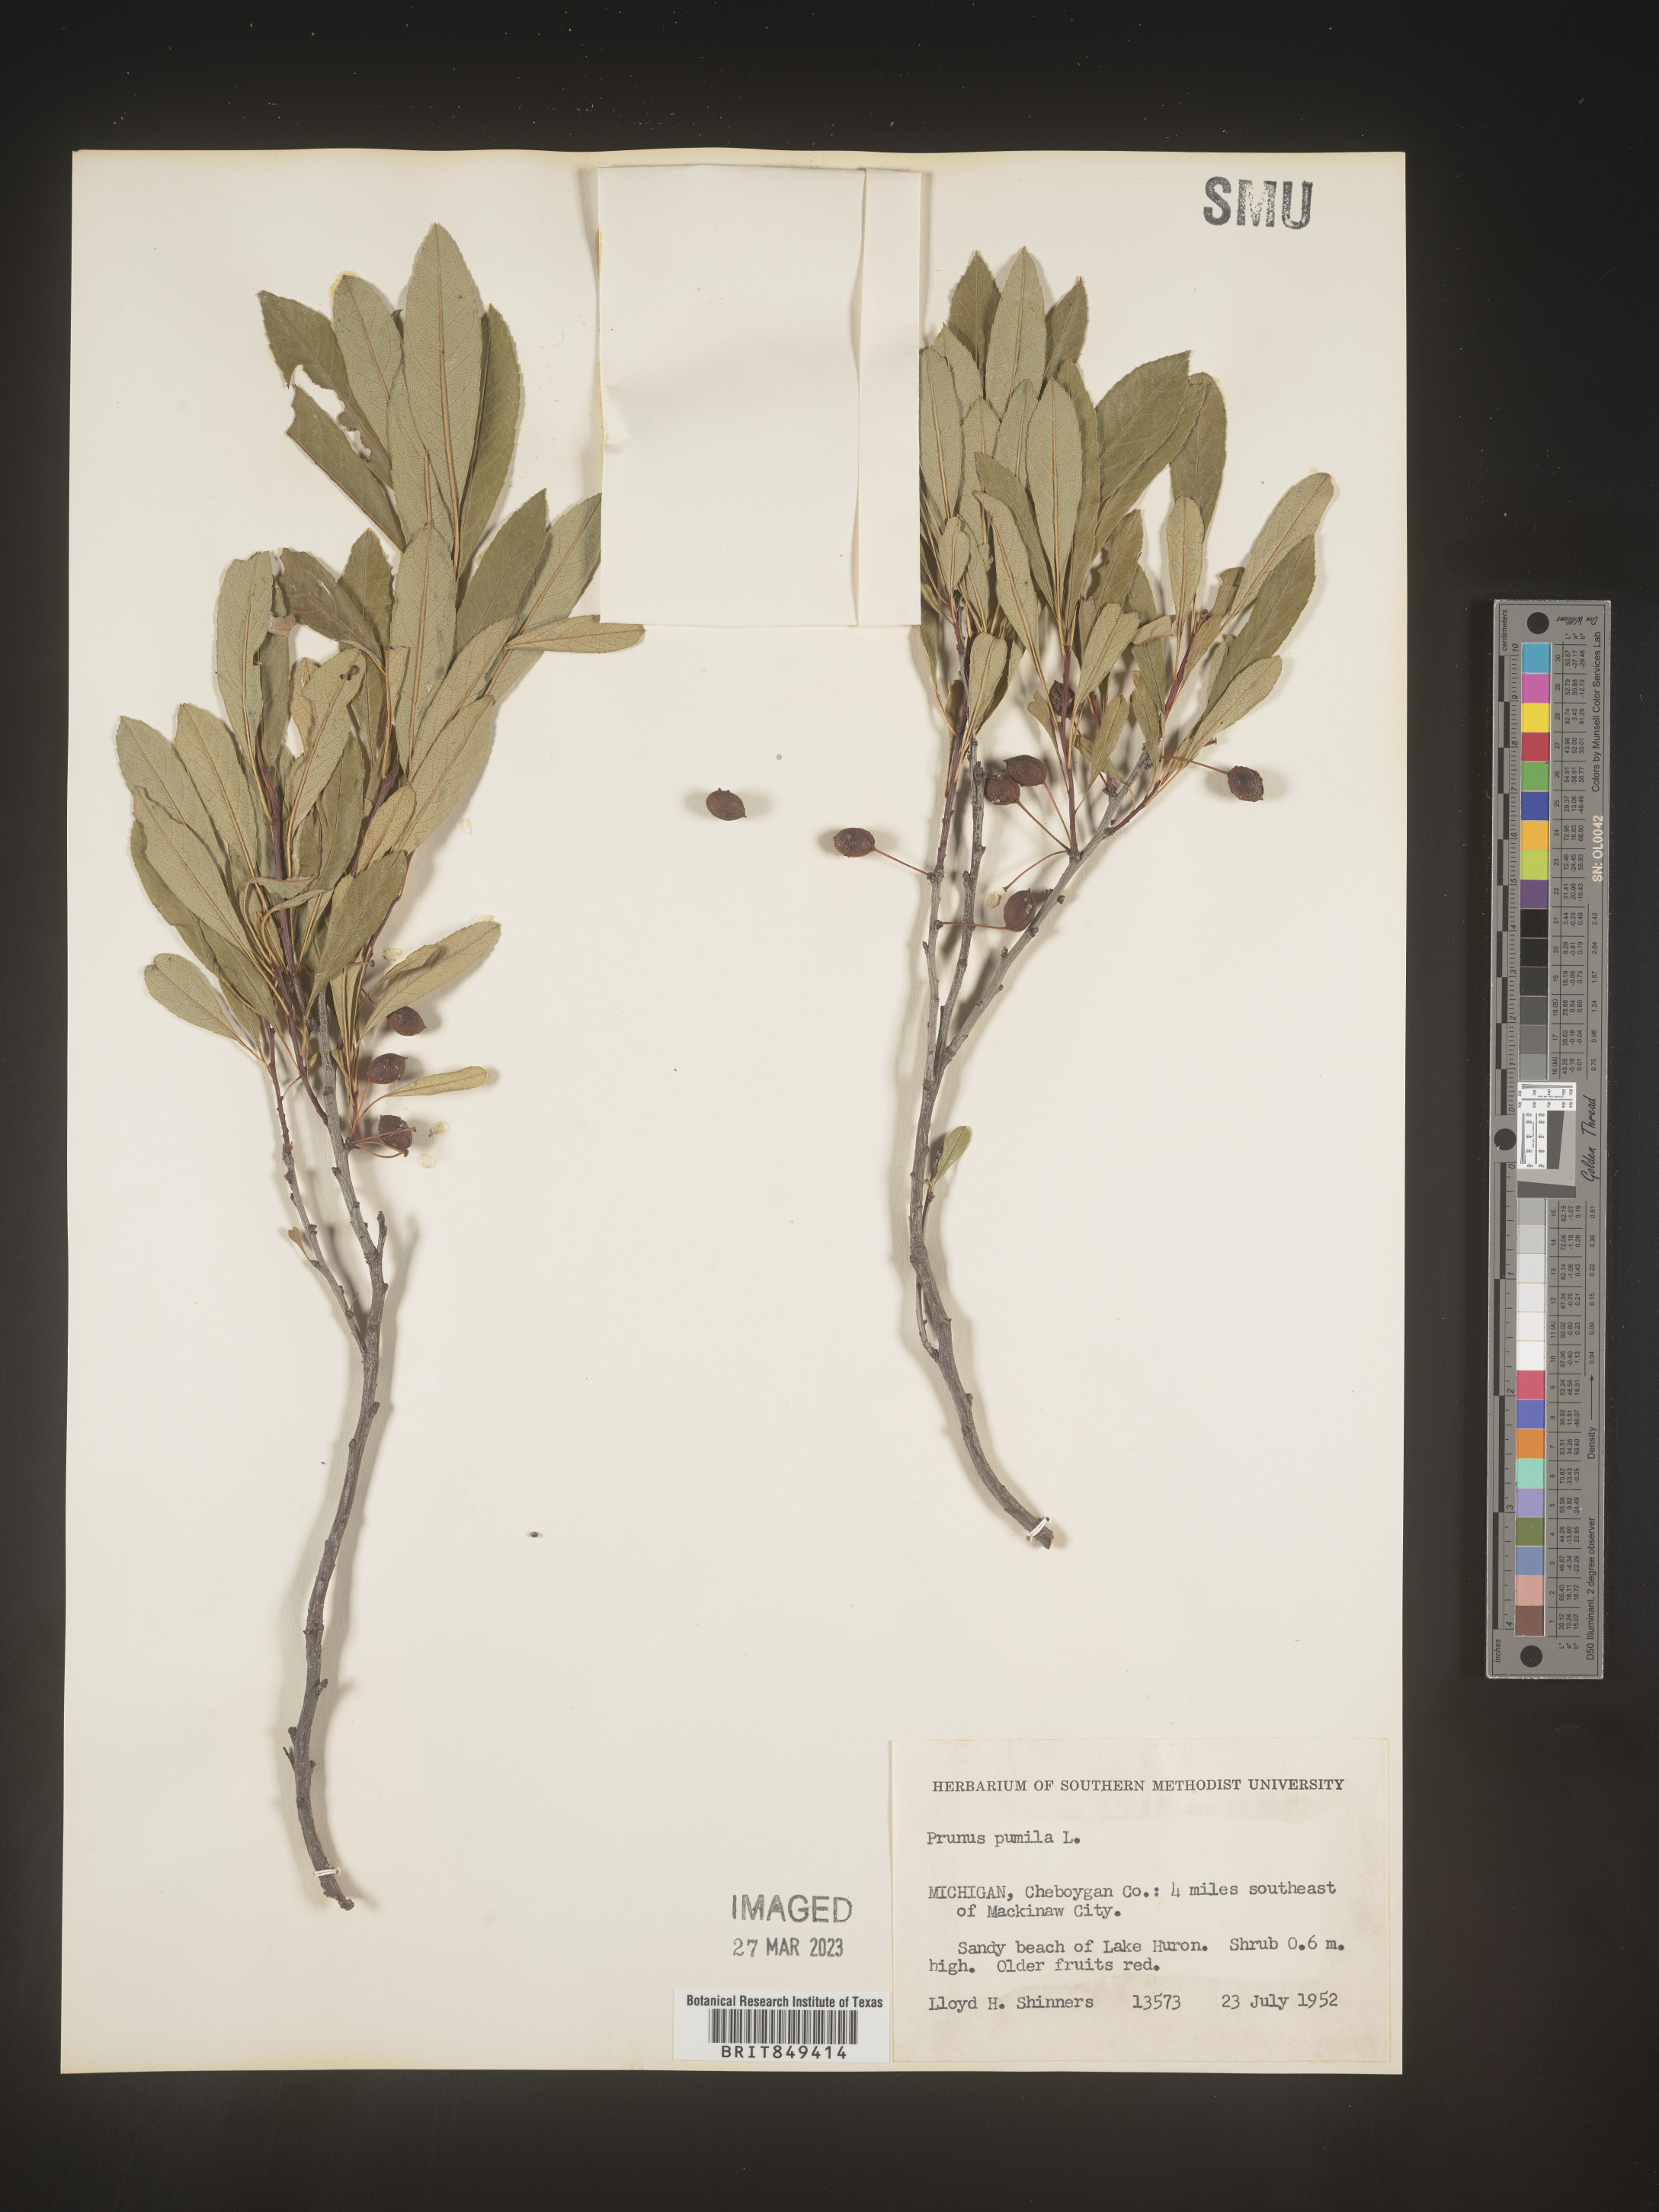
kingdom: Plantae
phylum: Tracheophyta
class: Magnoliopsida
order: Rosales
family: Rosaceae
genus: Prunus
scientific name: Prunus pumila
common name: Dwarf cherry
